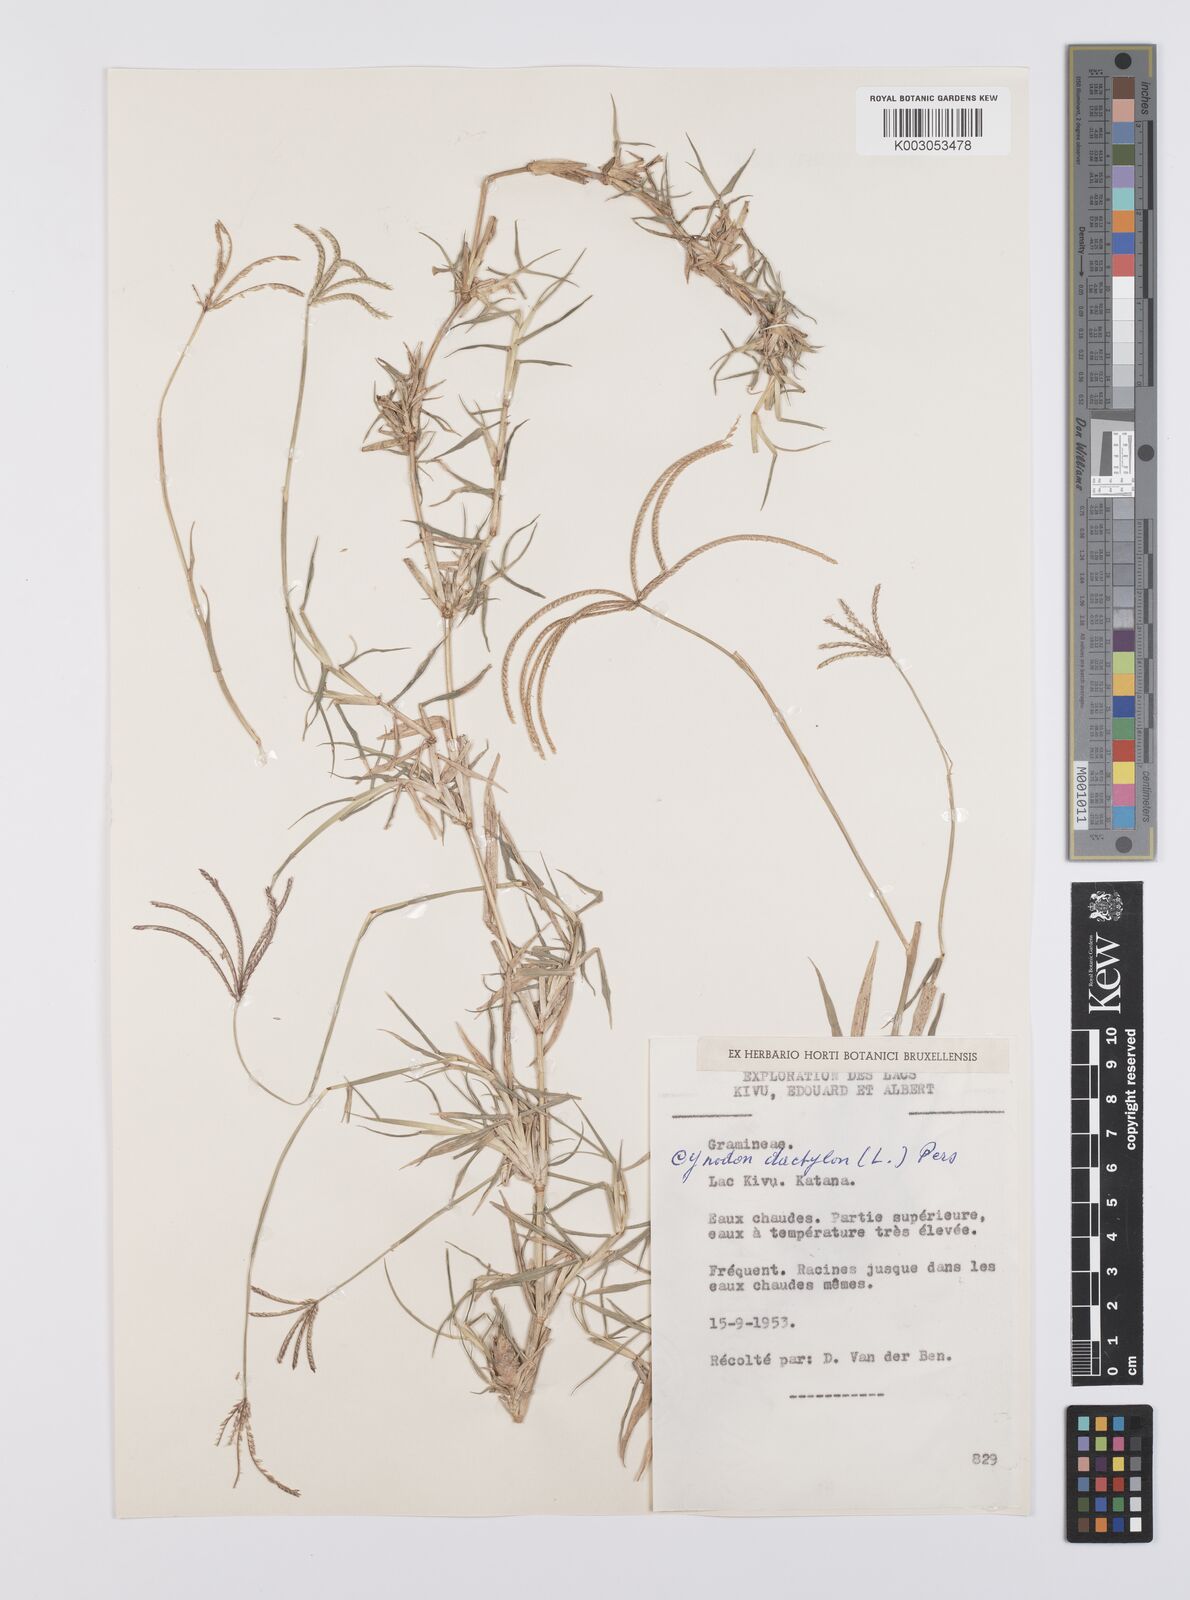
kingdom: Plantae
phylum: Tracheophyta
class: Liliopsida
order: Poales
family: Poaceae
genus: Cynodon
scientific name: Cynodon dactylon
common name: Bermuda grass
